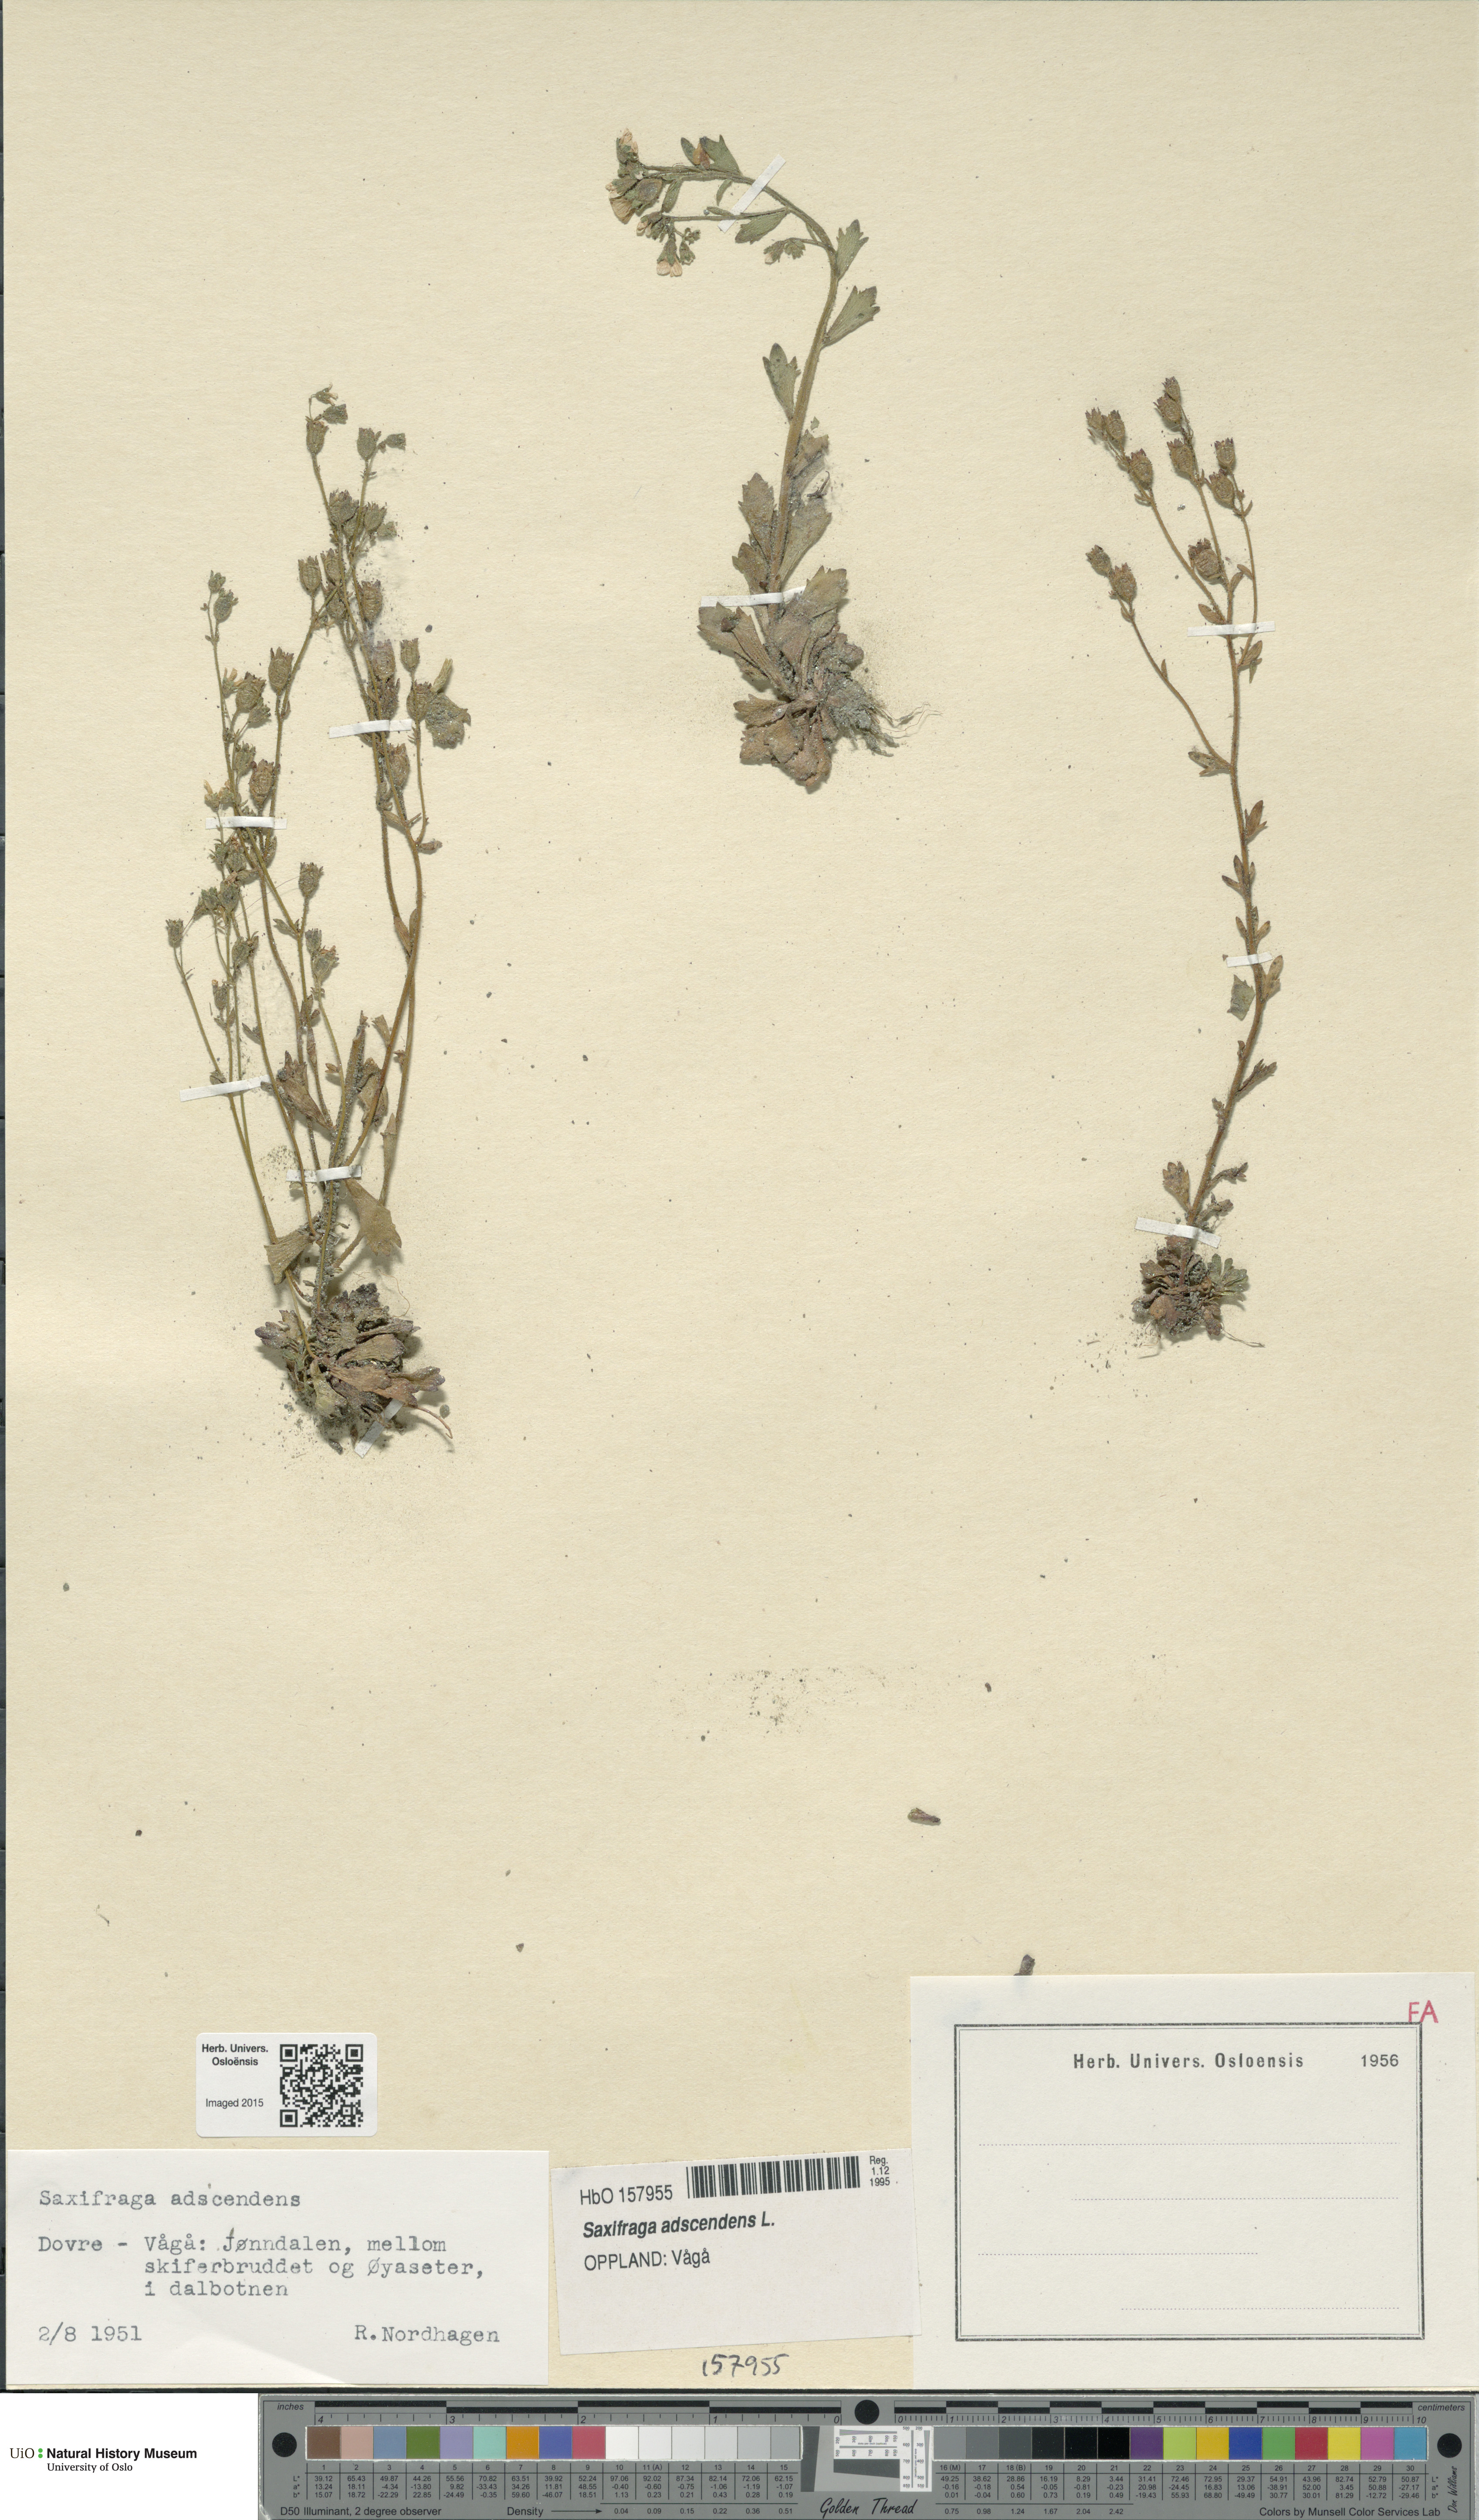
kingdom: Plantae
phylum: Tracheophyta
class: Magnoliopsida
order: Saxifragales
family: Saxifragaceae
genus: Saxifraga
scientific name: Saxifraga adscendens
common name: Ascending saxifrage
